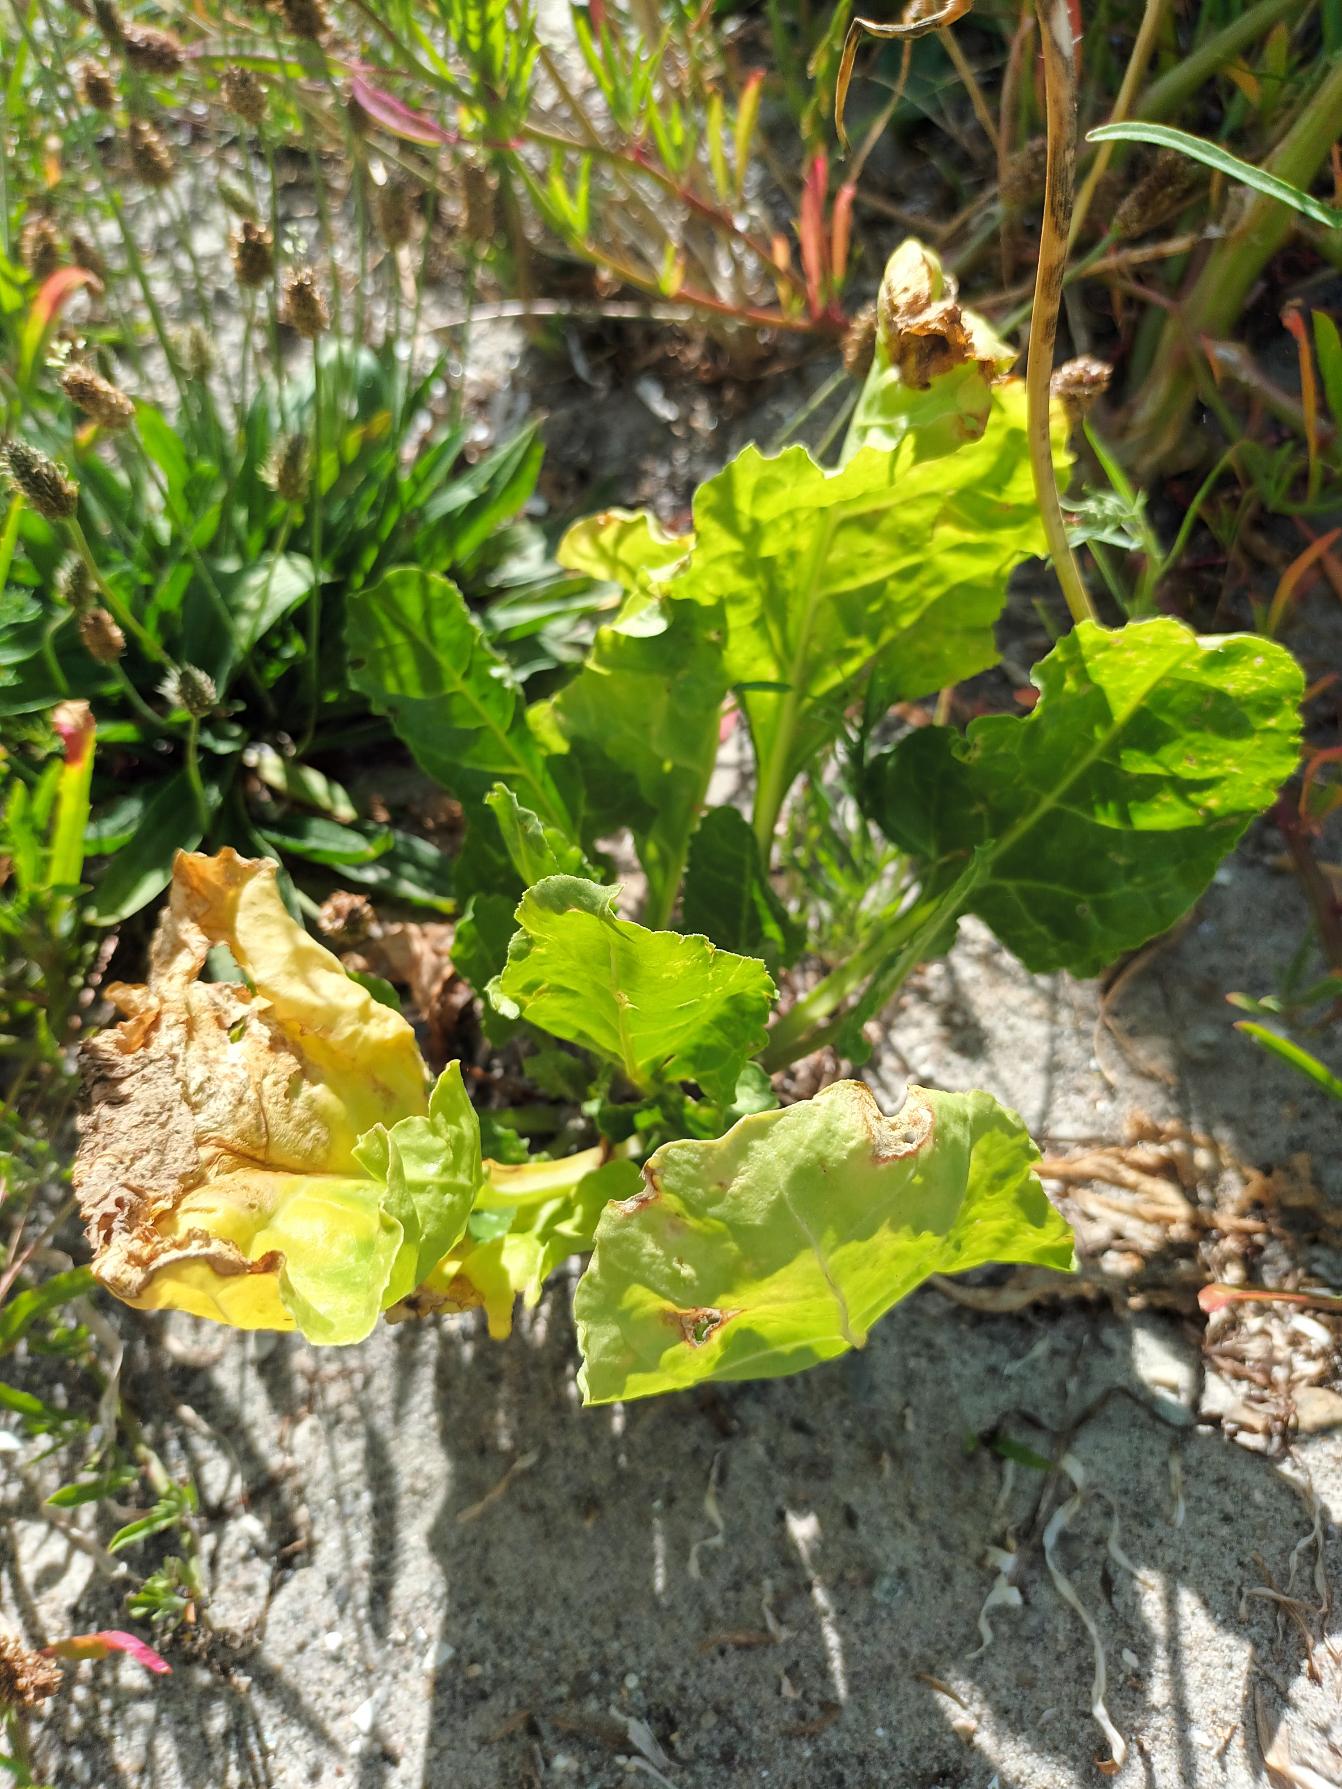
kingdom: Plantae
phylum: Tracheophyta
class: Magnoliopsida
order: Caryophyllales
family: Amaranthaceae
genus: Beta
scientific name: Beta maritima
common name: Strand-bede
